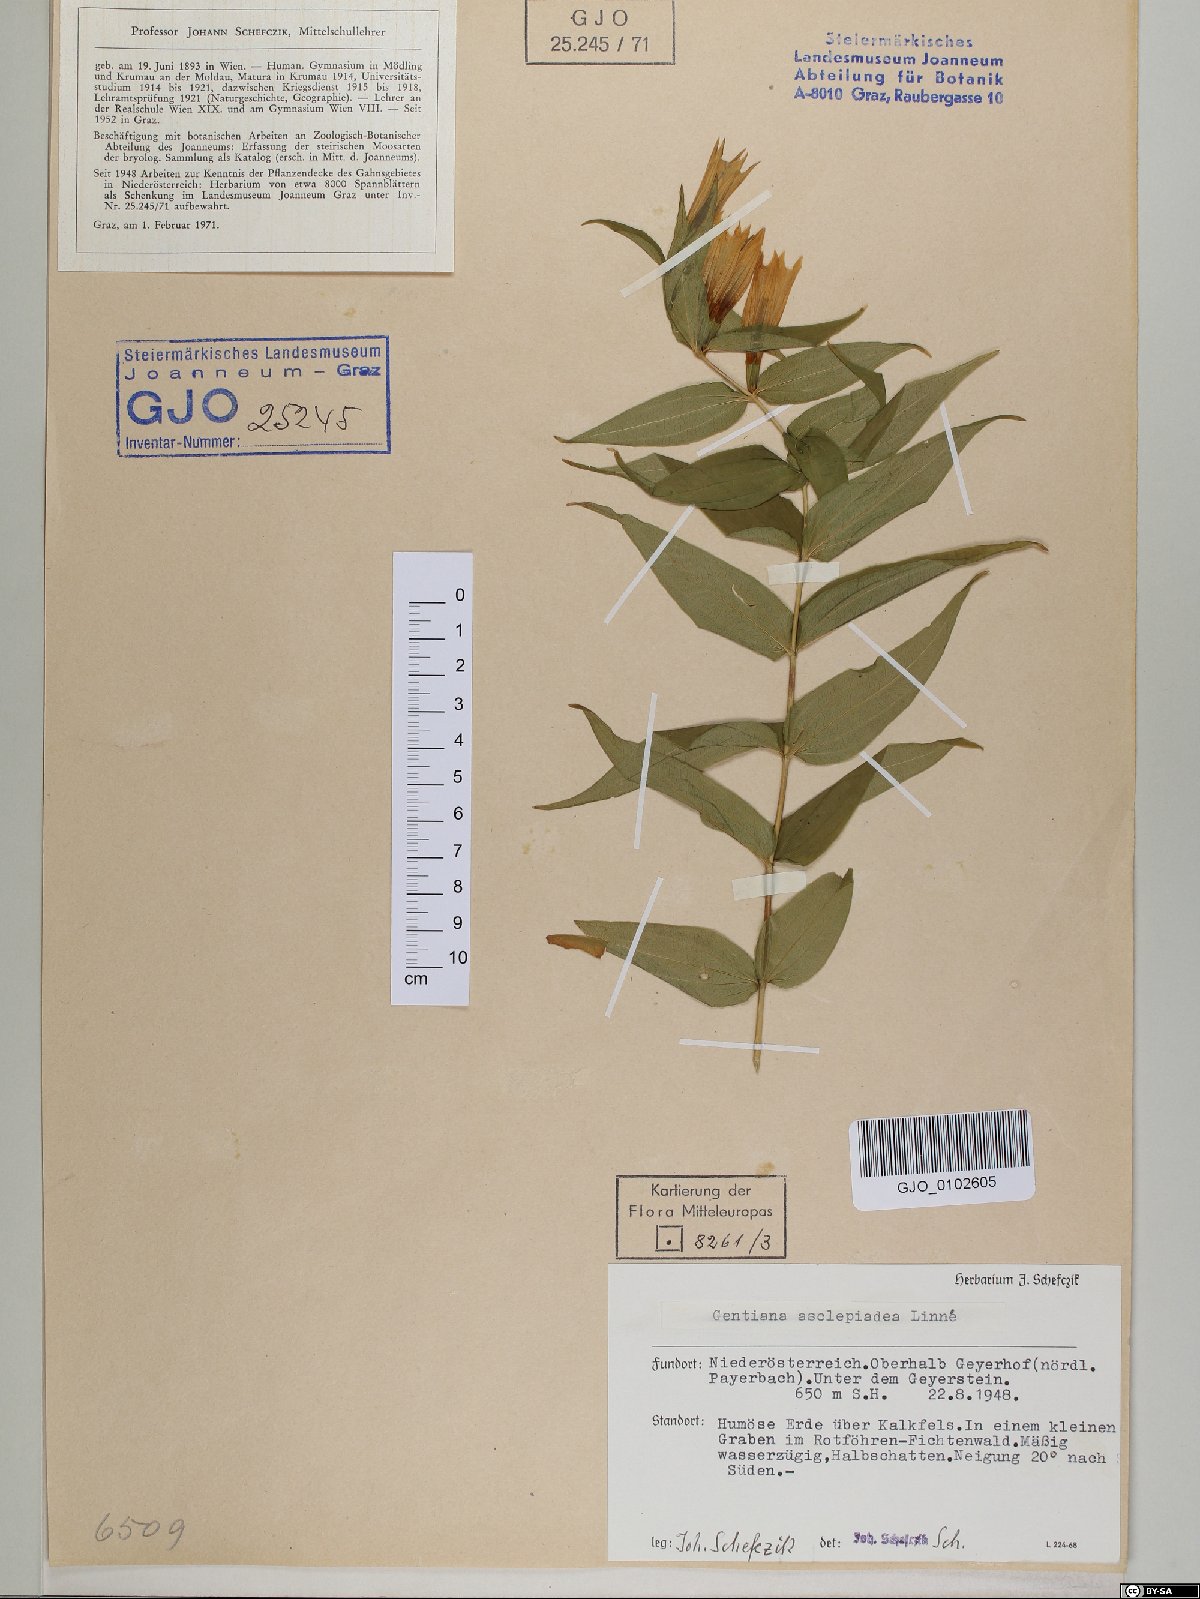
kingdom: Plantae
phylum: Tracheophyta
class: Magnoliopsida
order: Gentianales
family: Gentianaceae
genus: Gentiana
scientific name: Gentiana asclepiadea
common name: Willow gentian
